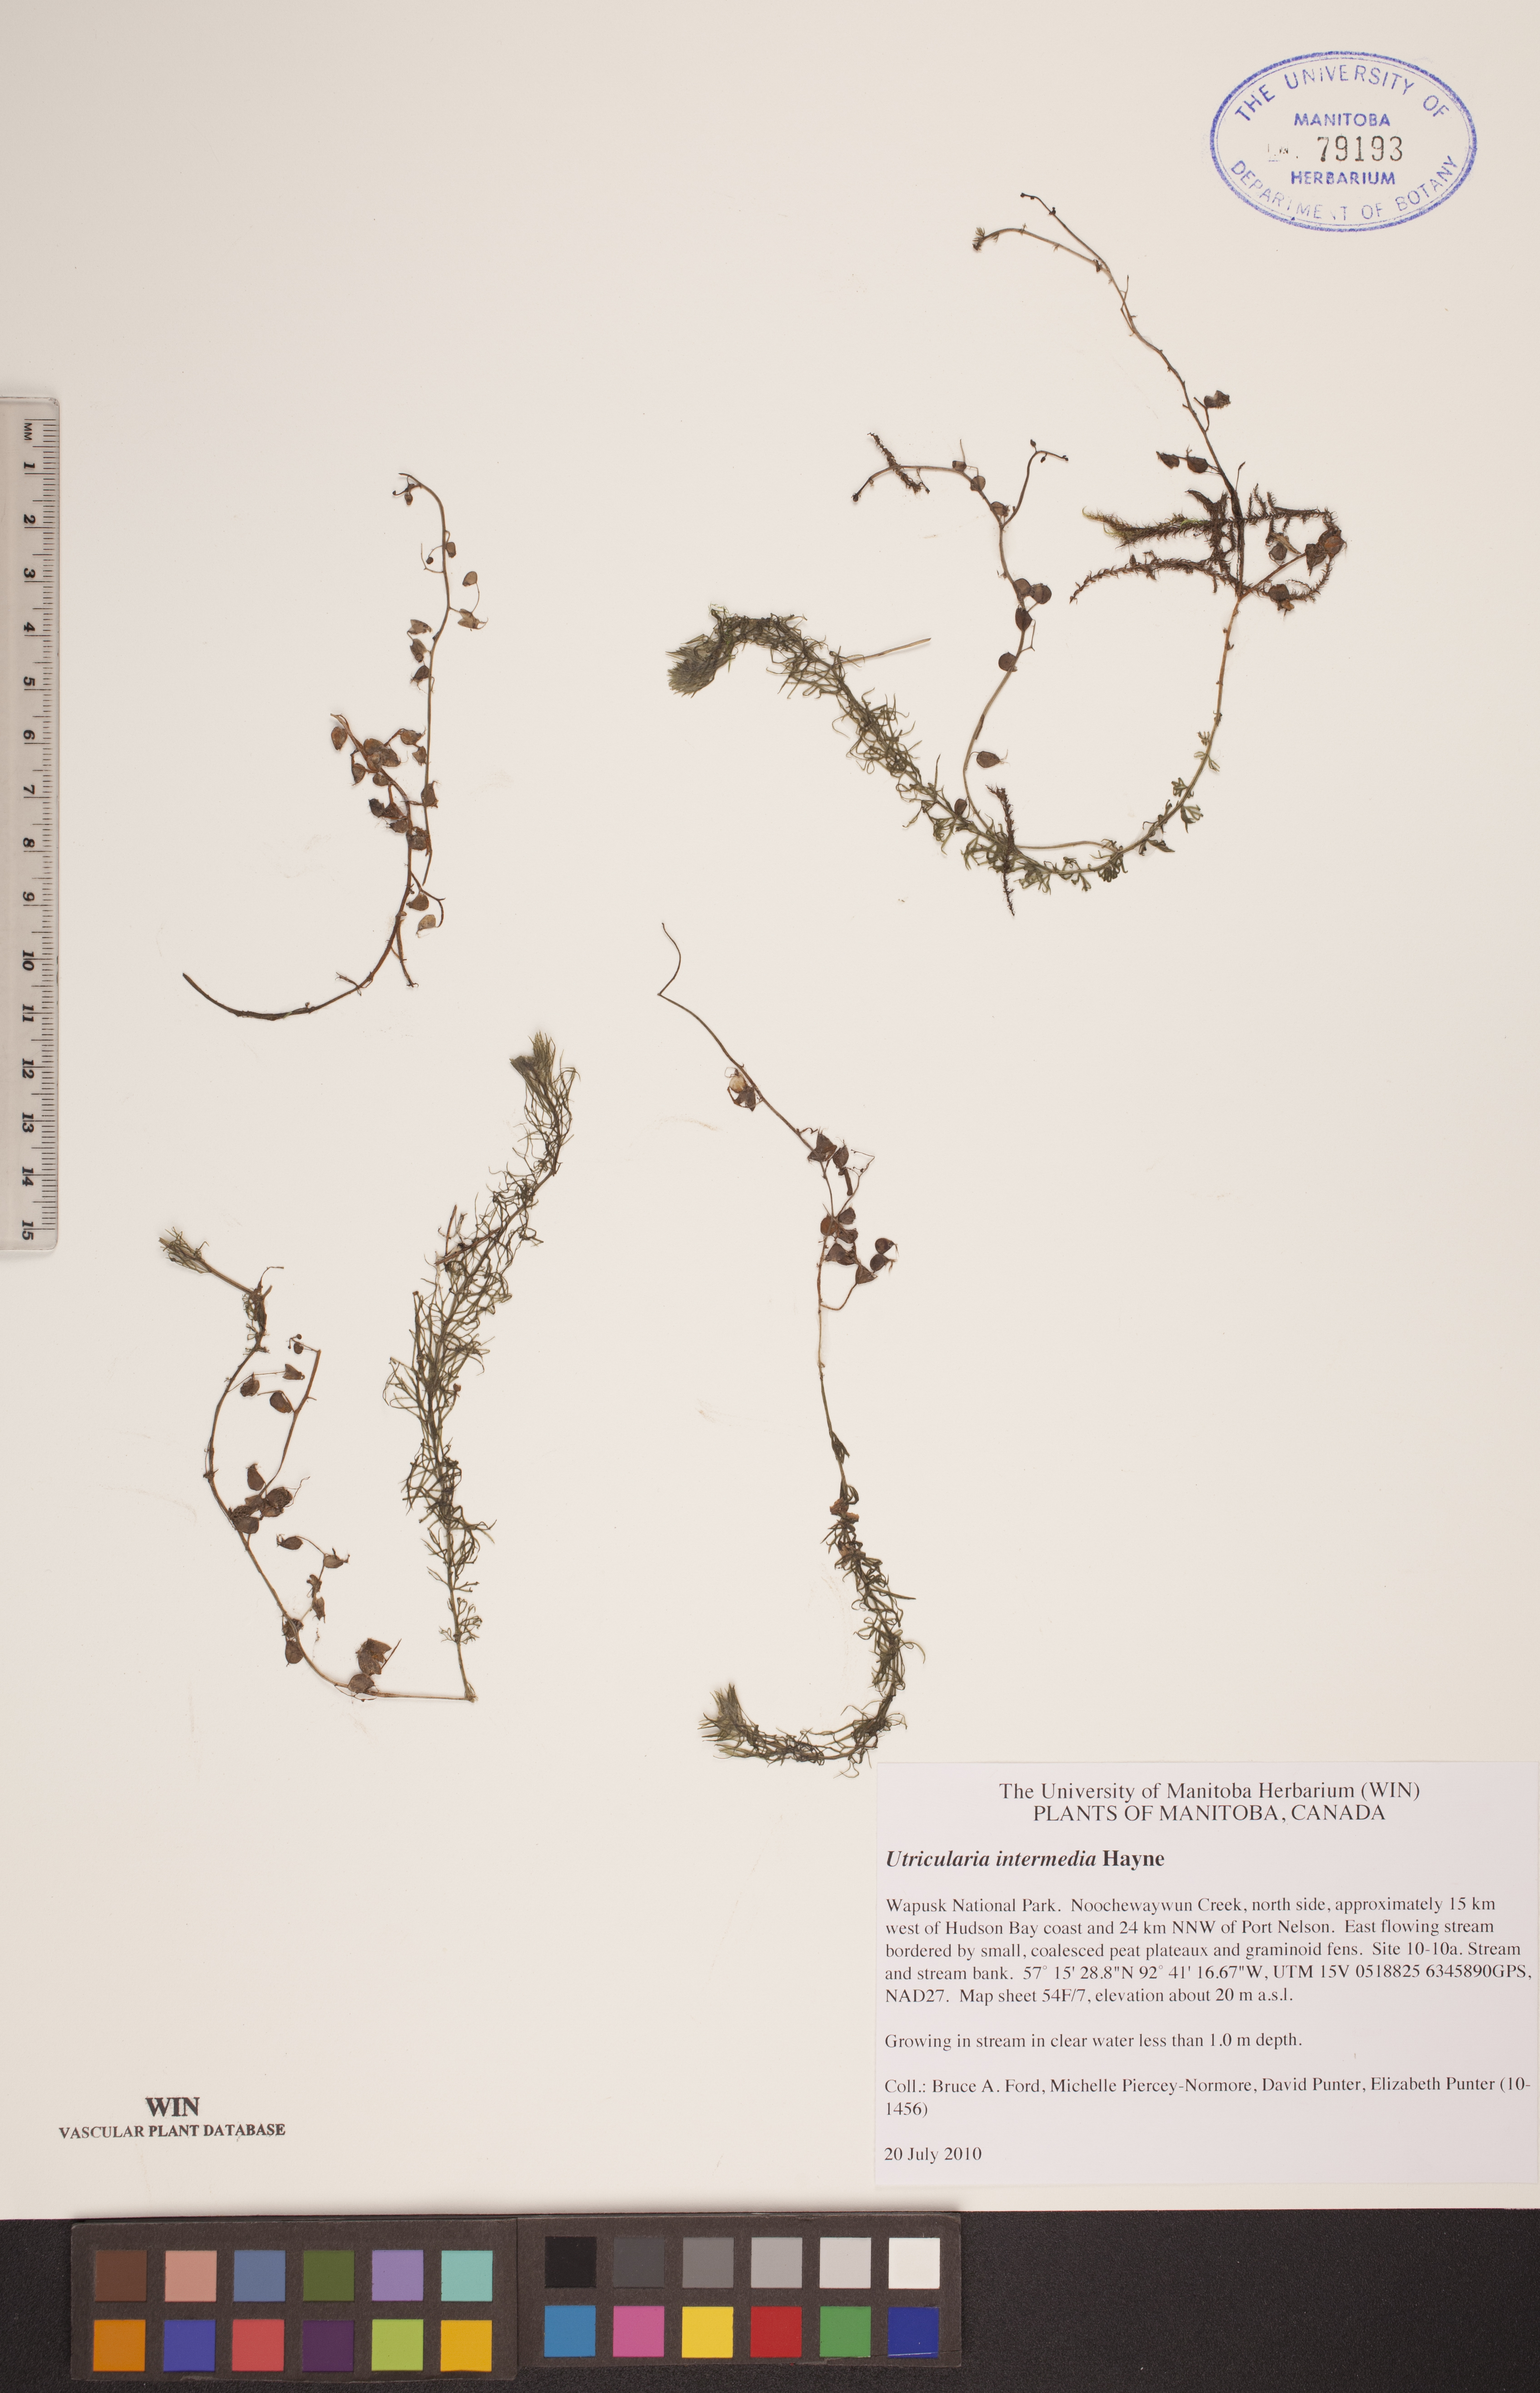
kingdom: Plantae
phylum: Tracheophyta
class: Magnoliopsida
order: Lamiales
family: Lentibulariaceae
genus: Utricularia
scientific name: Utricularia intermedia
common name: Intermediate bladderwort
